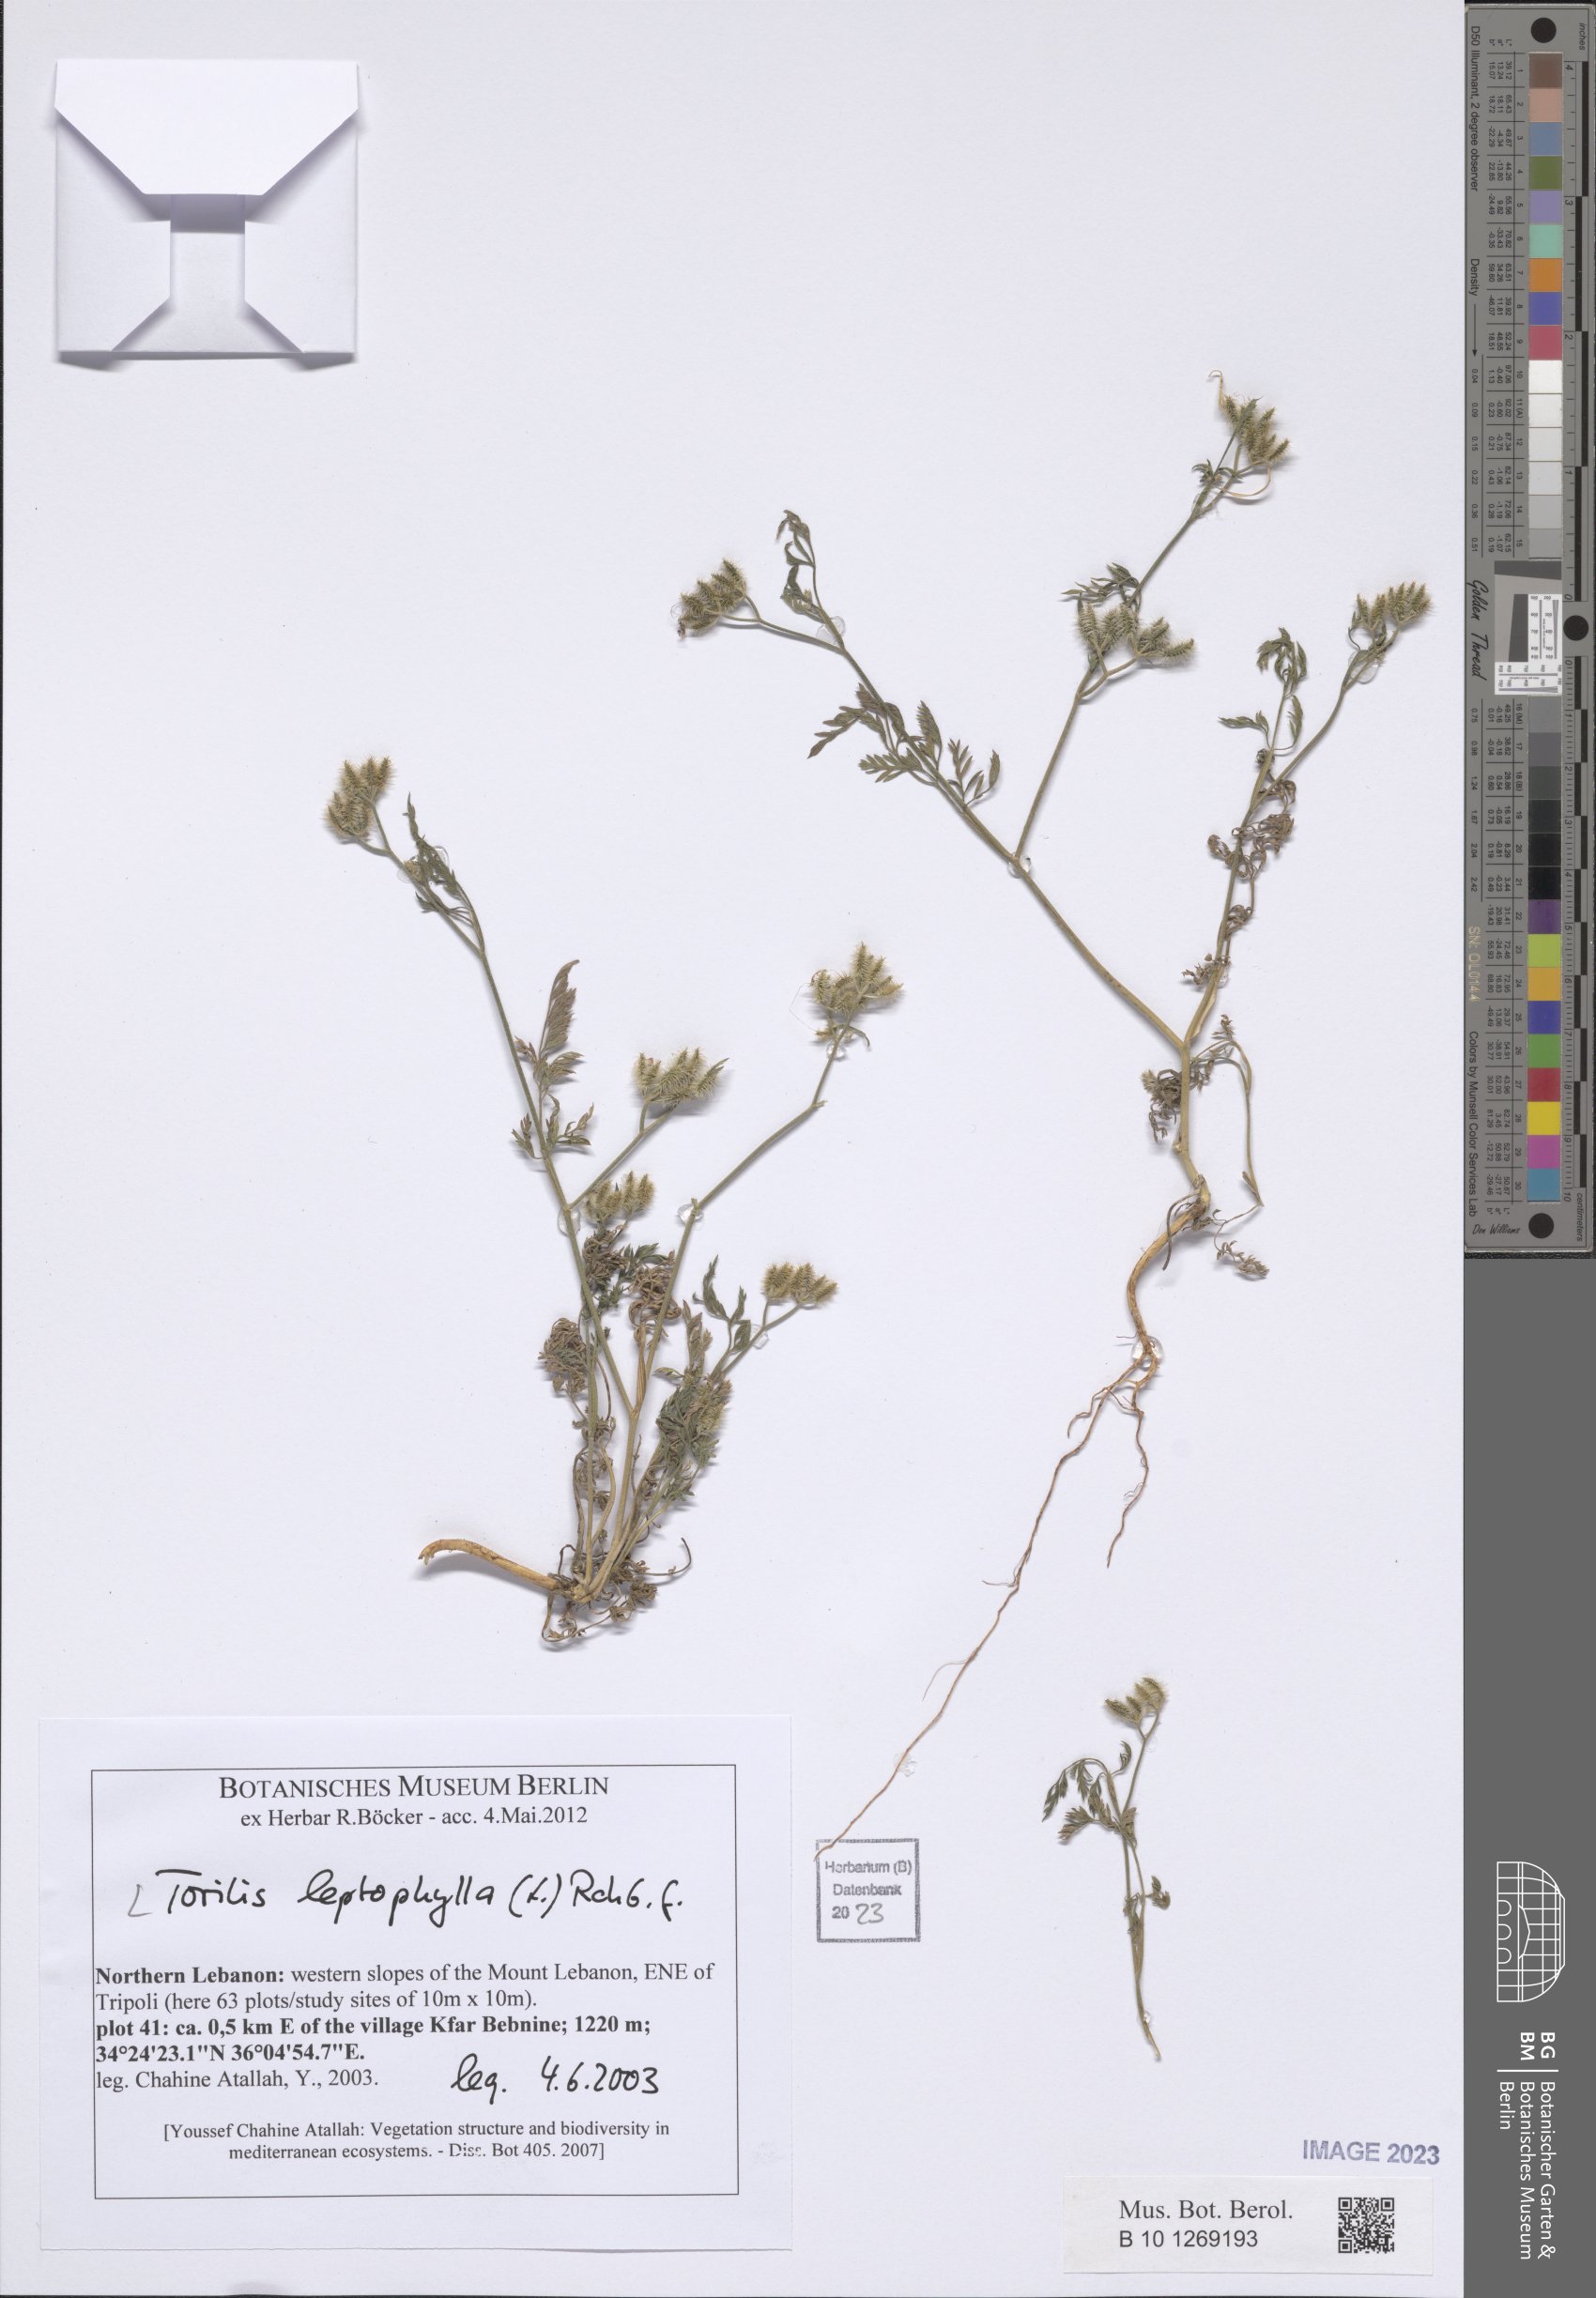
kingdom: Plantae
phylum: Tracheophyta
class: Magnoliopsida
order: Apiales
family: Apiaceae
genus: Torilis
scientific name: Torilis leptophylla
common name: Bristlefruit hedgeparsley
